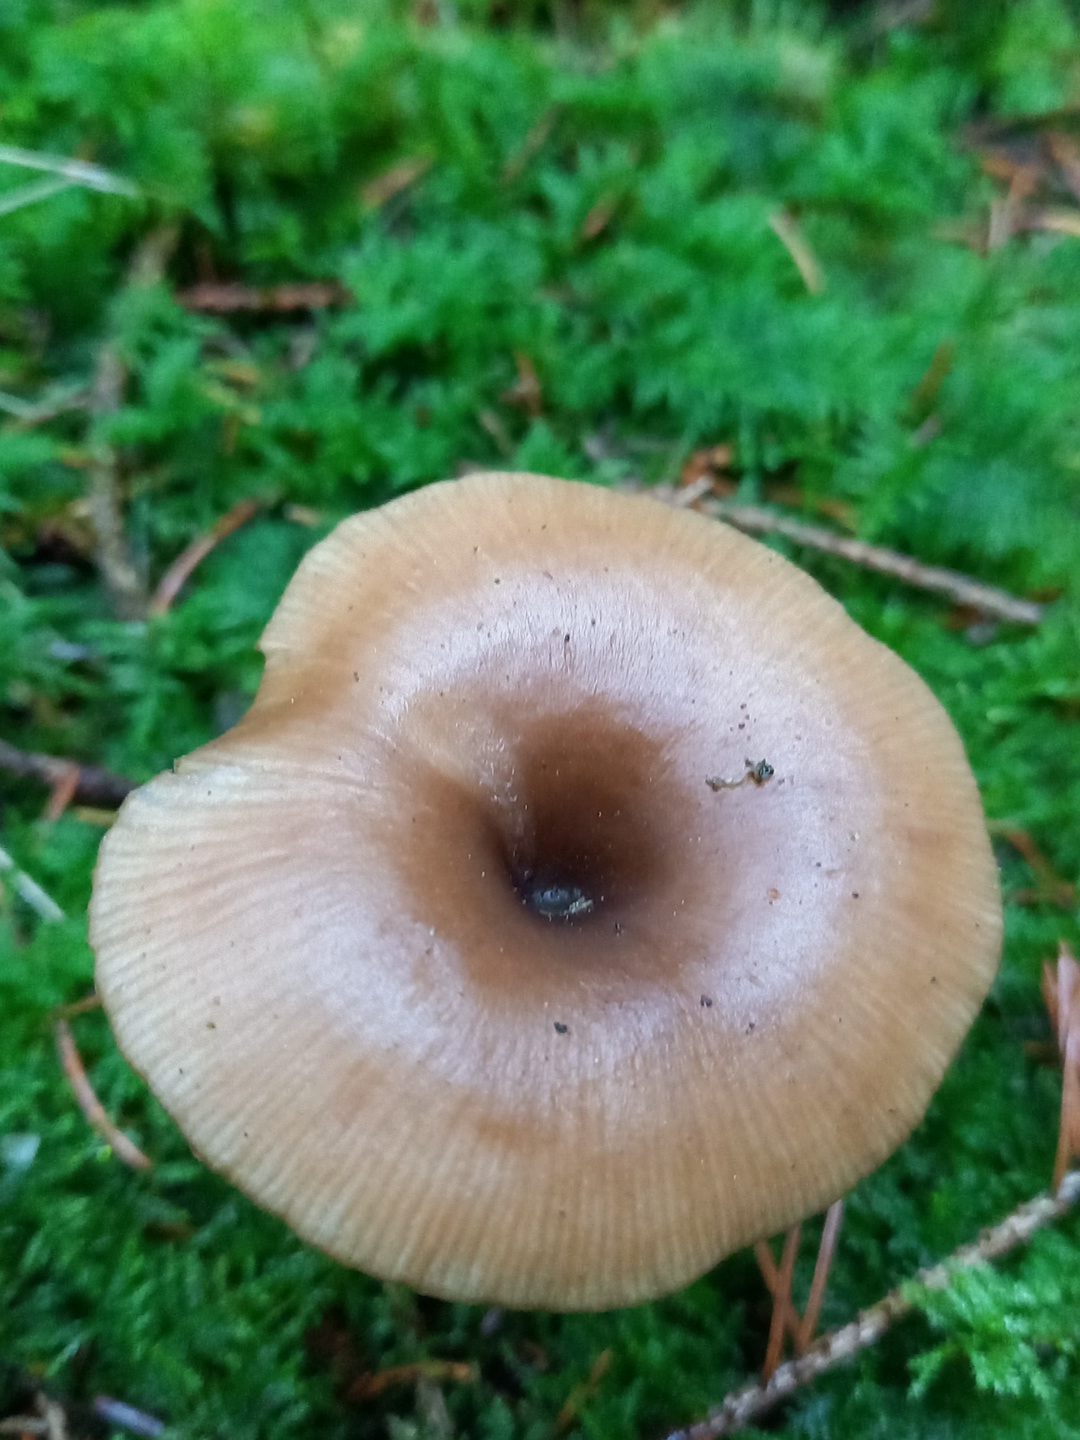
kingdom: Fungi
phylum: Basidiomycota
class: Agaricomycetes
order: Agaricales
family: Pseudoclitocybaceae
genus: Pseudoclitocybe
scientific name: Pseudoclitocybe cyathiformis
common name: almindelig bægertragthat
